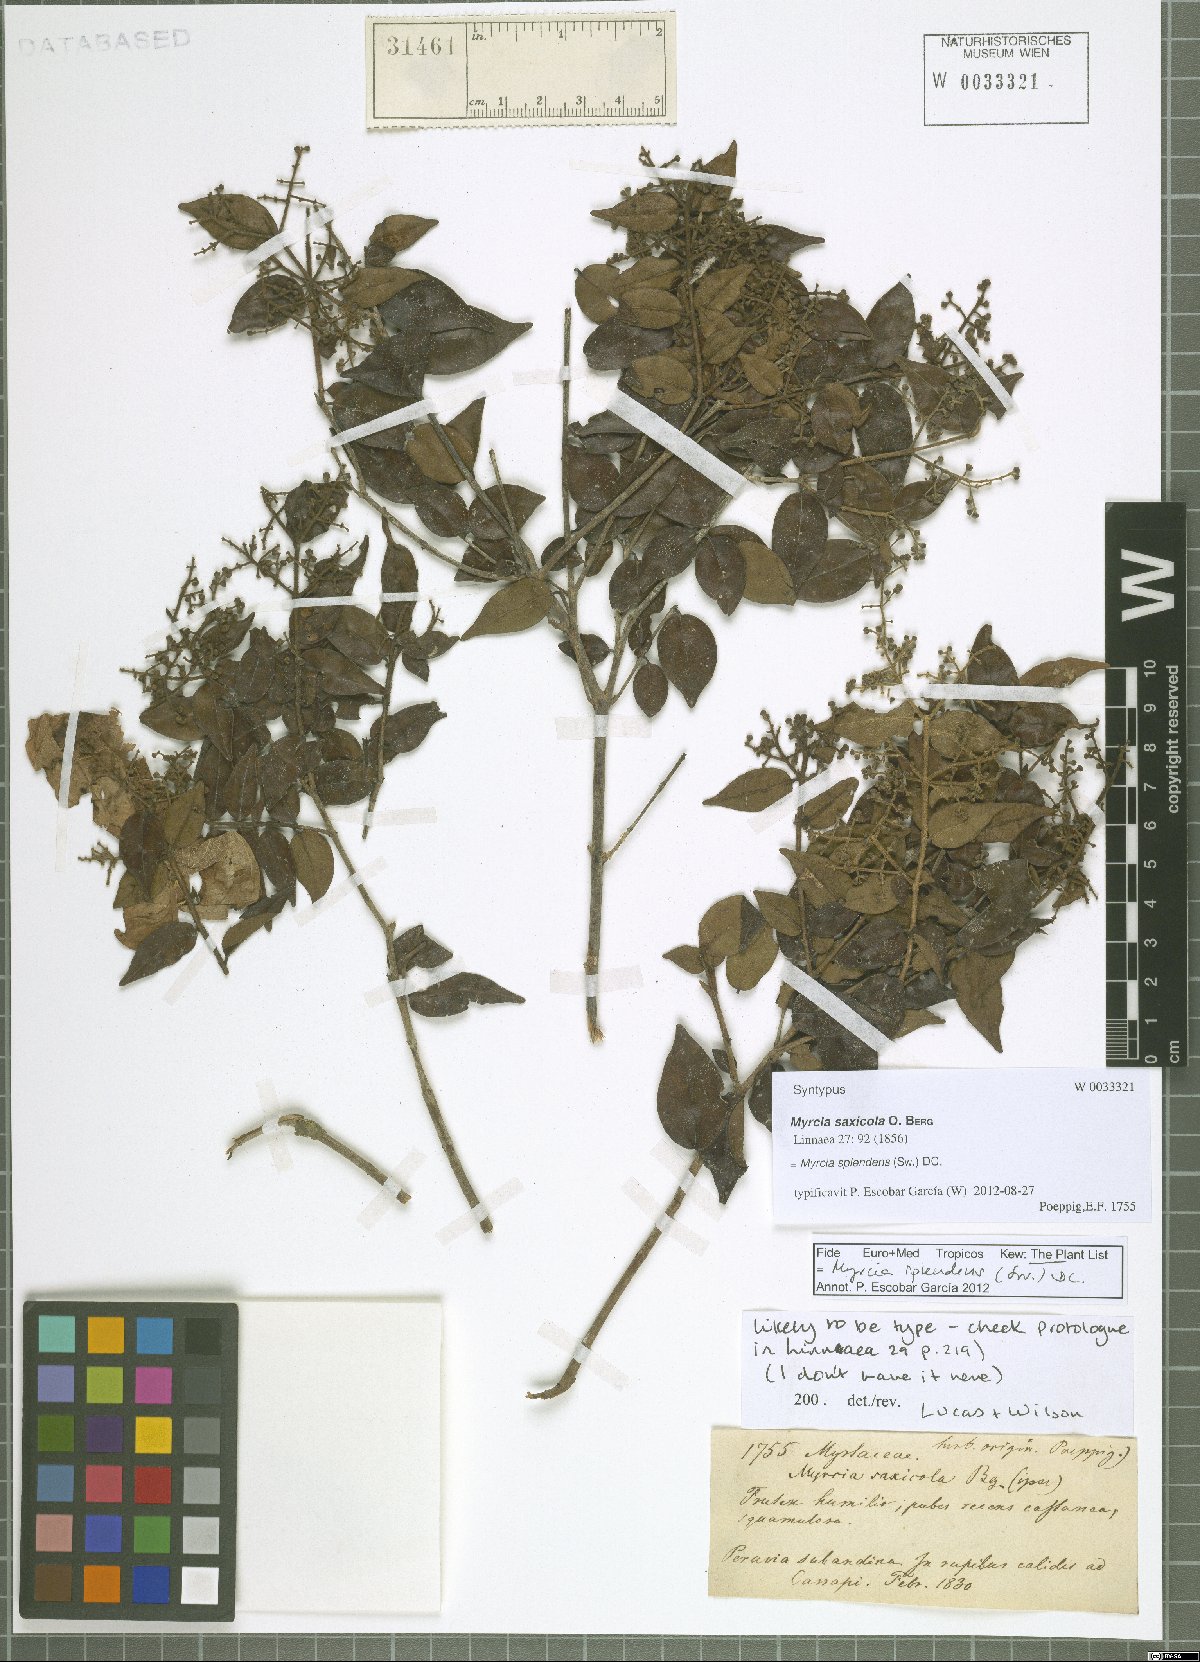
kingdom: Plantae
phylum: Tracheophyta
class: Magnoliopsida
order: Myrtales
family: Myrtaceae
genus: Myrcia
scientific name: Myrcia splendens
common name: Surinam cherry
